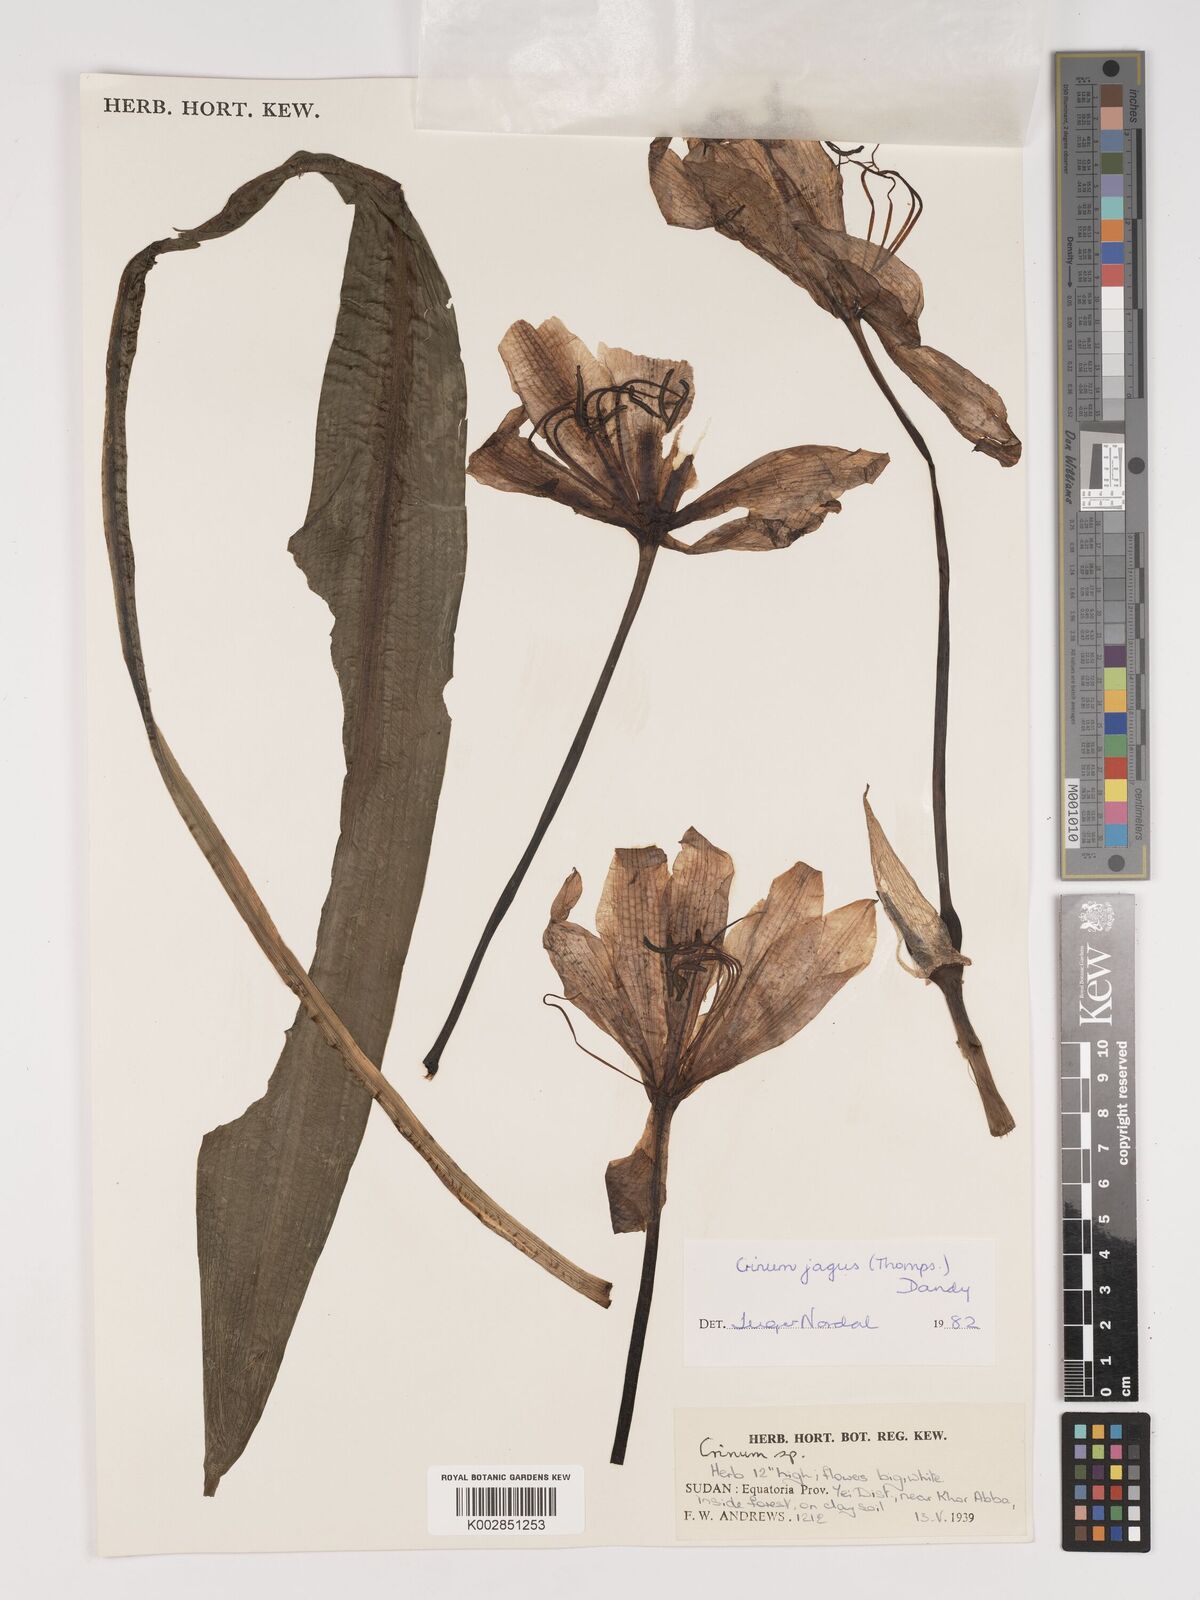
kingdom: Plantae
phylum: Tracheophyta
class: Liliopsida
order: Asparagales
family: Amaryllidaceae
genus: Crinum
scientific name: Crinum jagus
